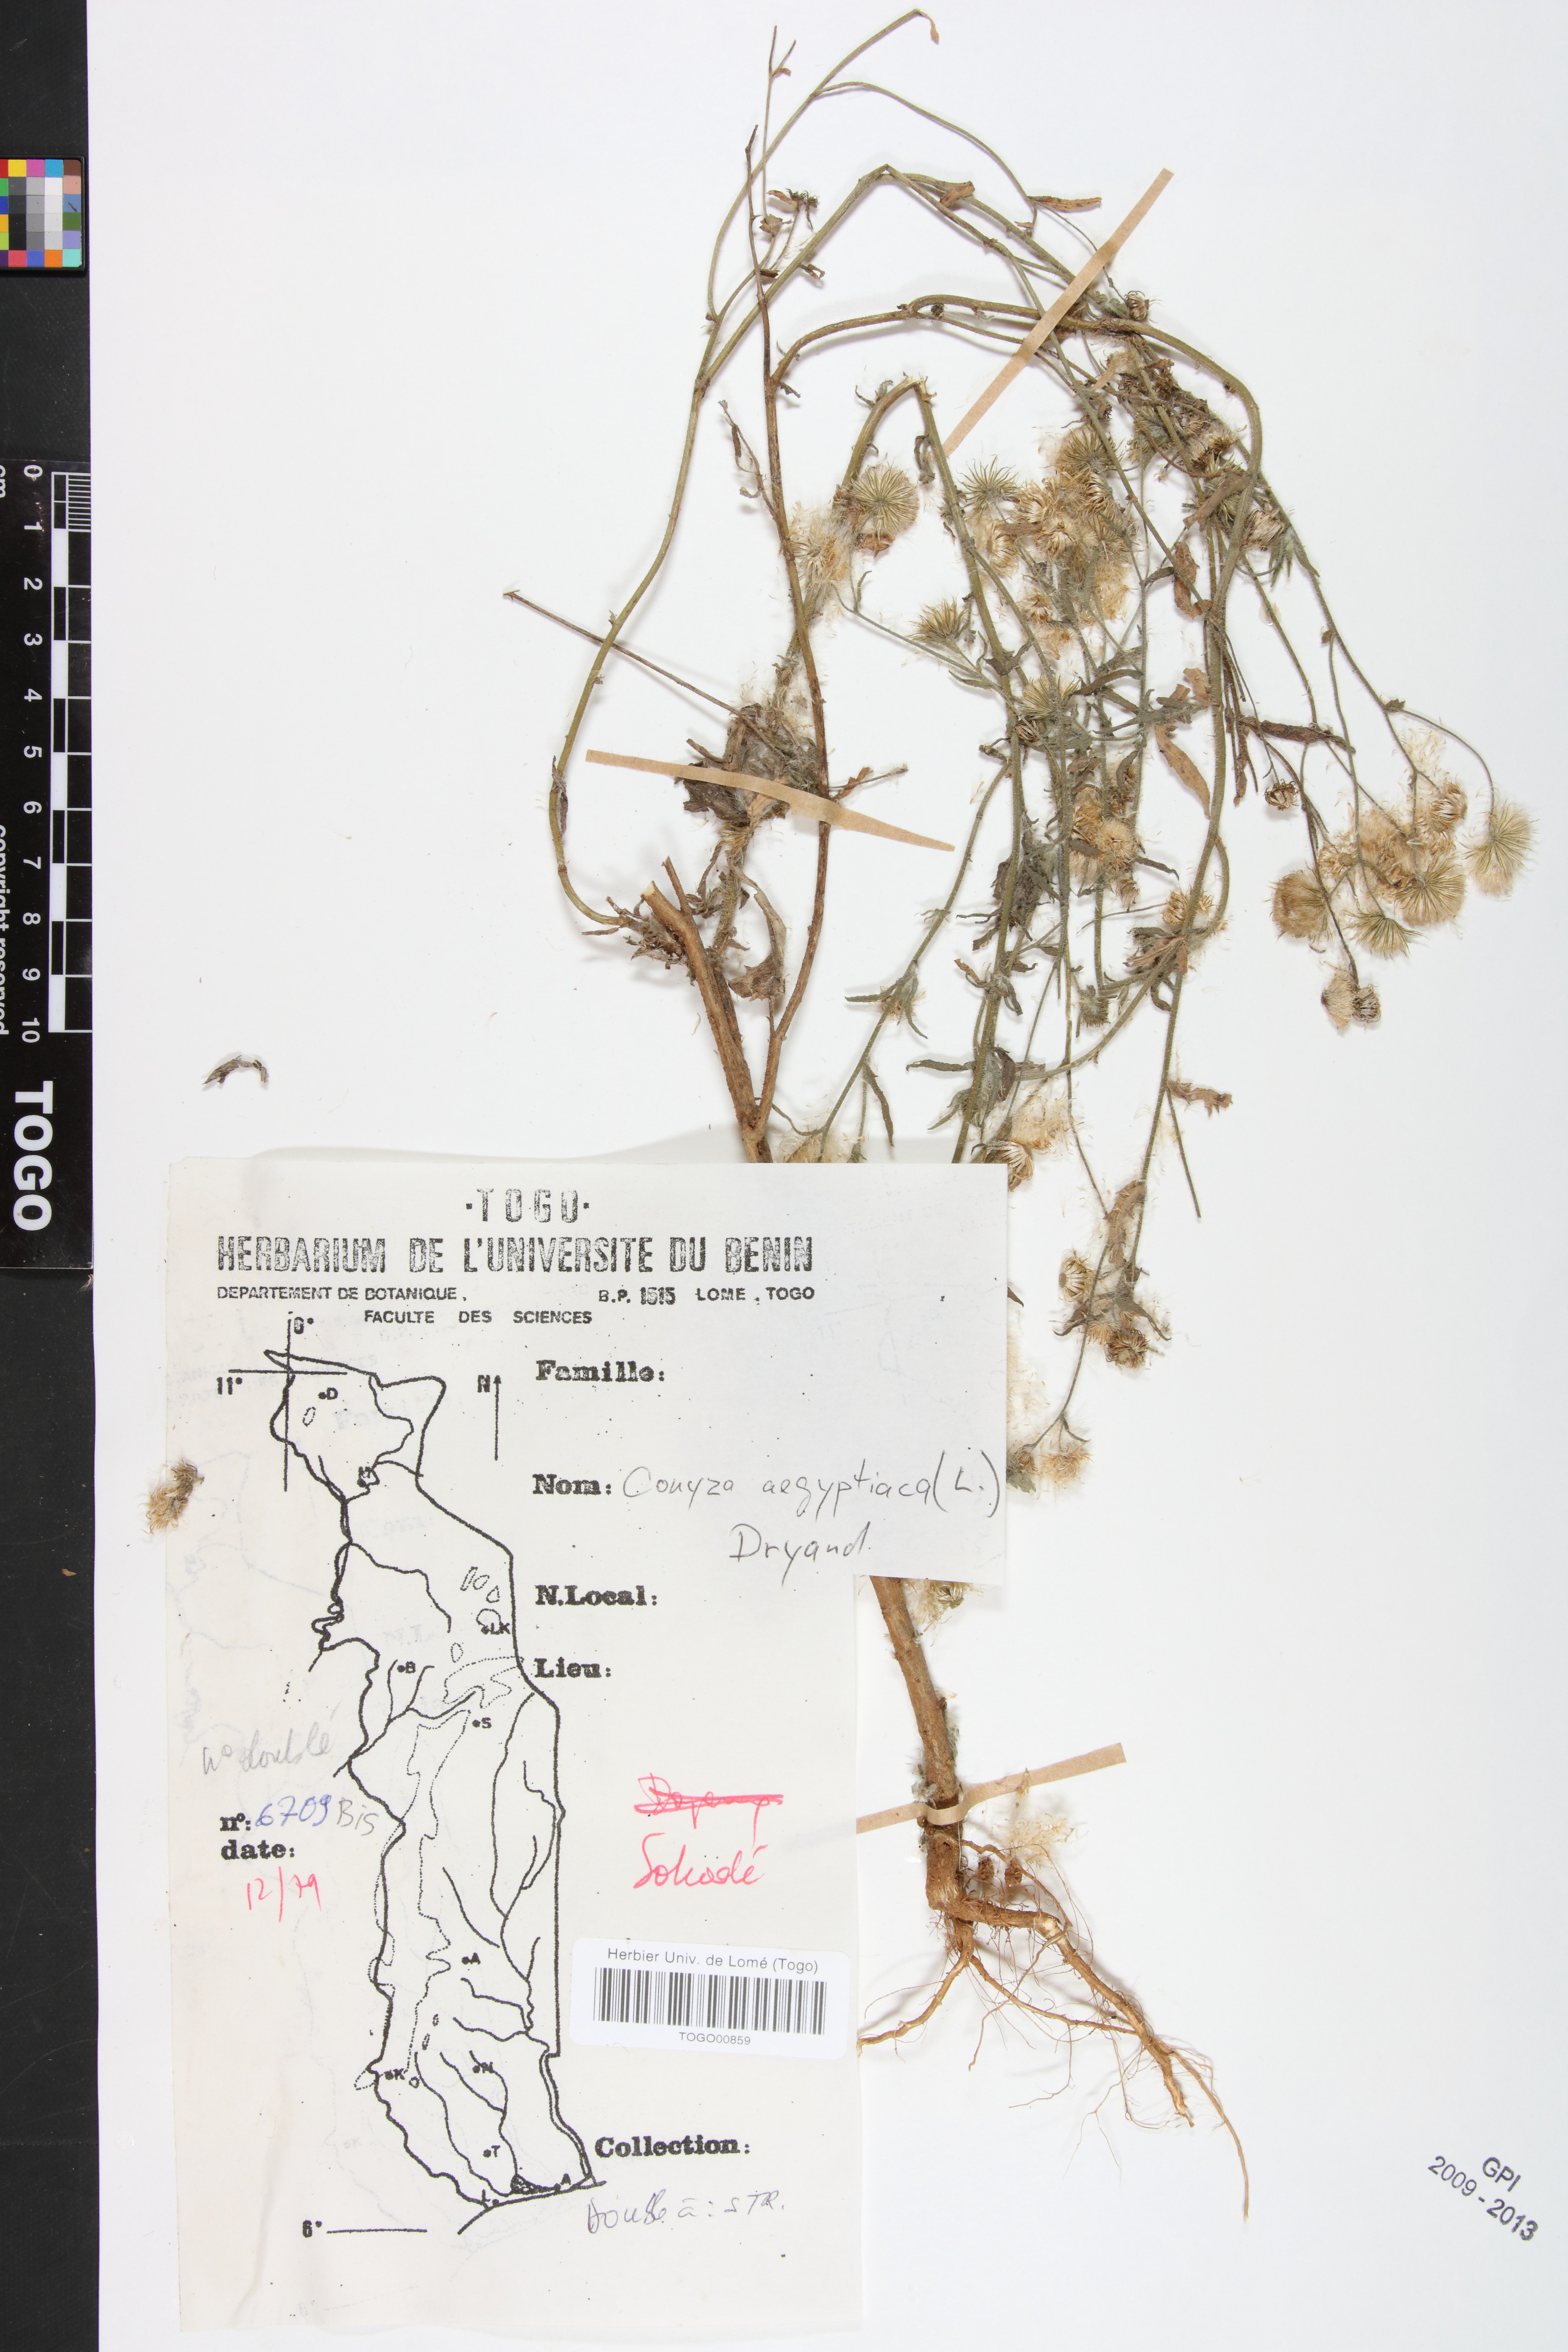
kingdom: Plantae
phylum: Tracheophyta
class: Magnoliopsida
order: Asterales
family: Asteraceae
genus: Nidorella
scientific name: Nidorella aegyptiaca
